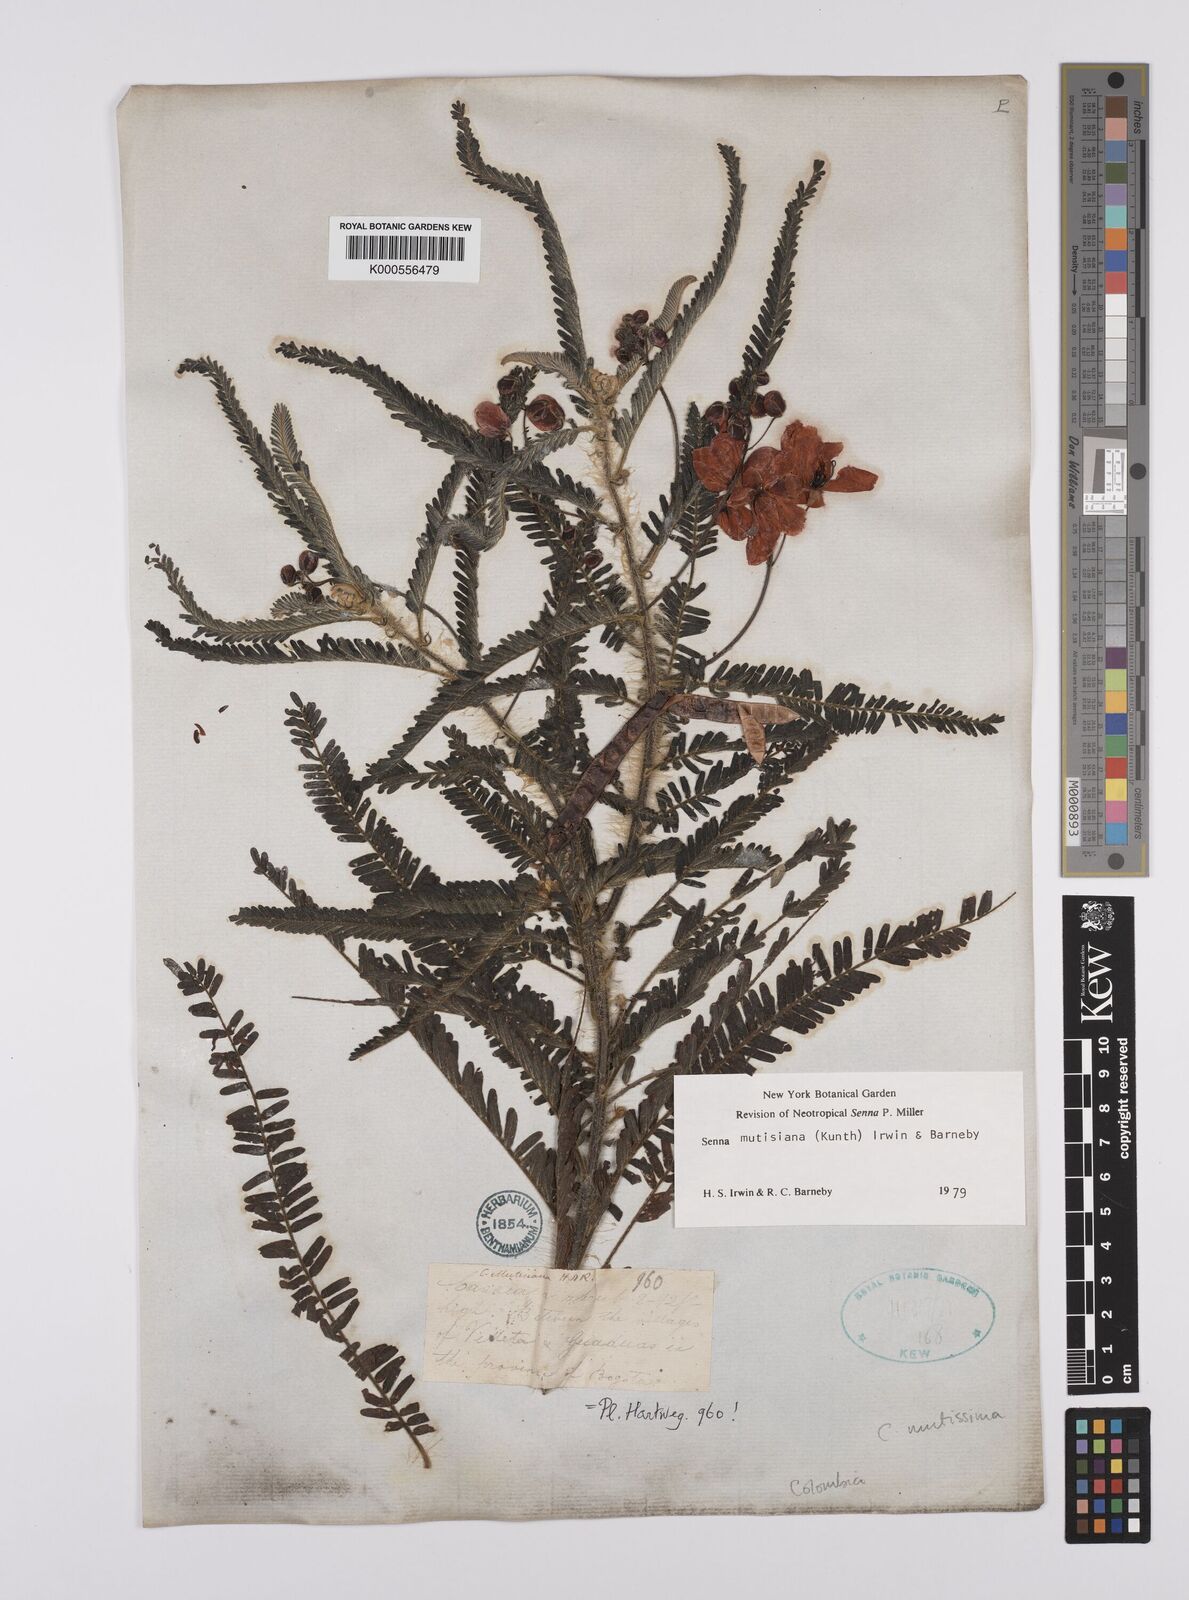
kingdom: Plantae
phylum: Tracheophyta
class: Magnoliopsida
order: Fabales
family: Fabaceae
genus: Senna
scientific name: Senna mutisiana
